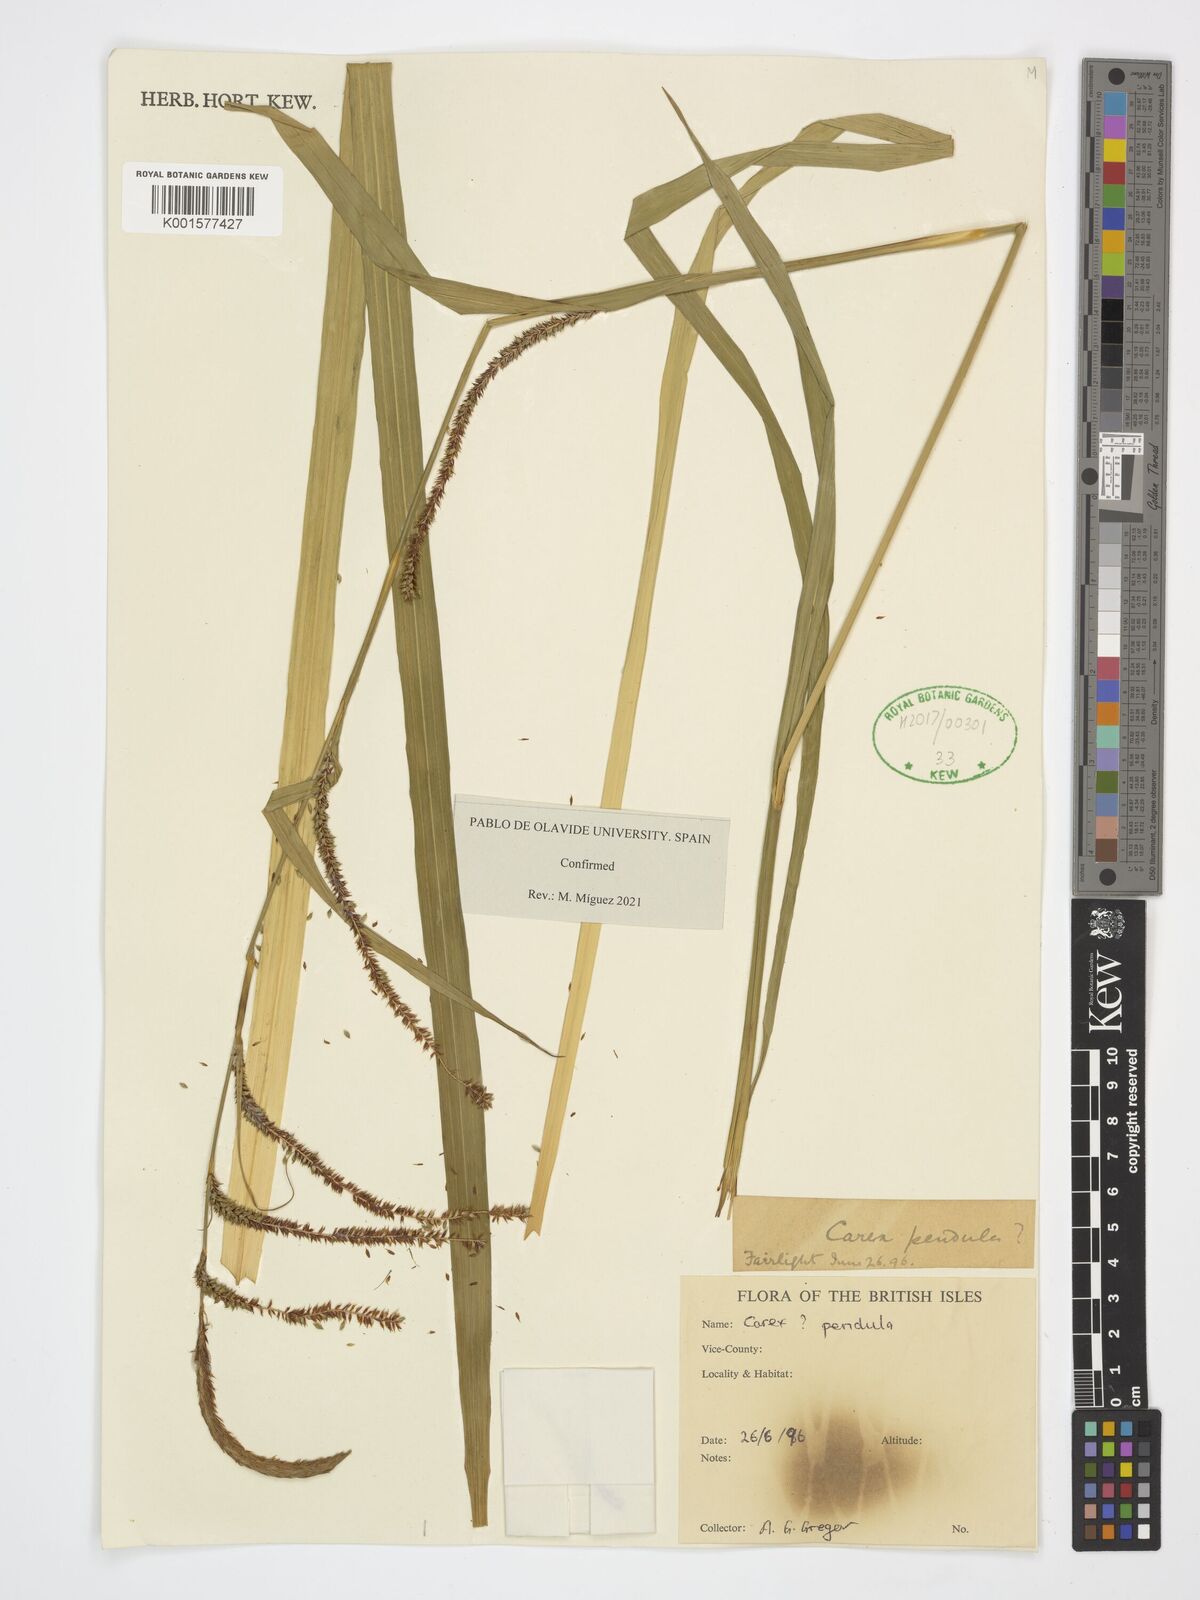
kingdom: Plantae
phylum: Tracheophyta
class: Liliopsida
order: Poales
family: Cyperaceae
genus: Carex
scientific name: Carex pendula
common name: Pendulous sedge
